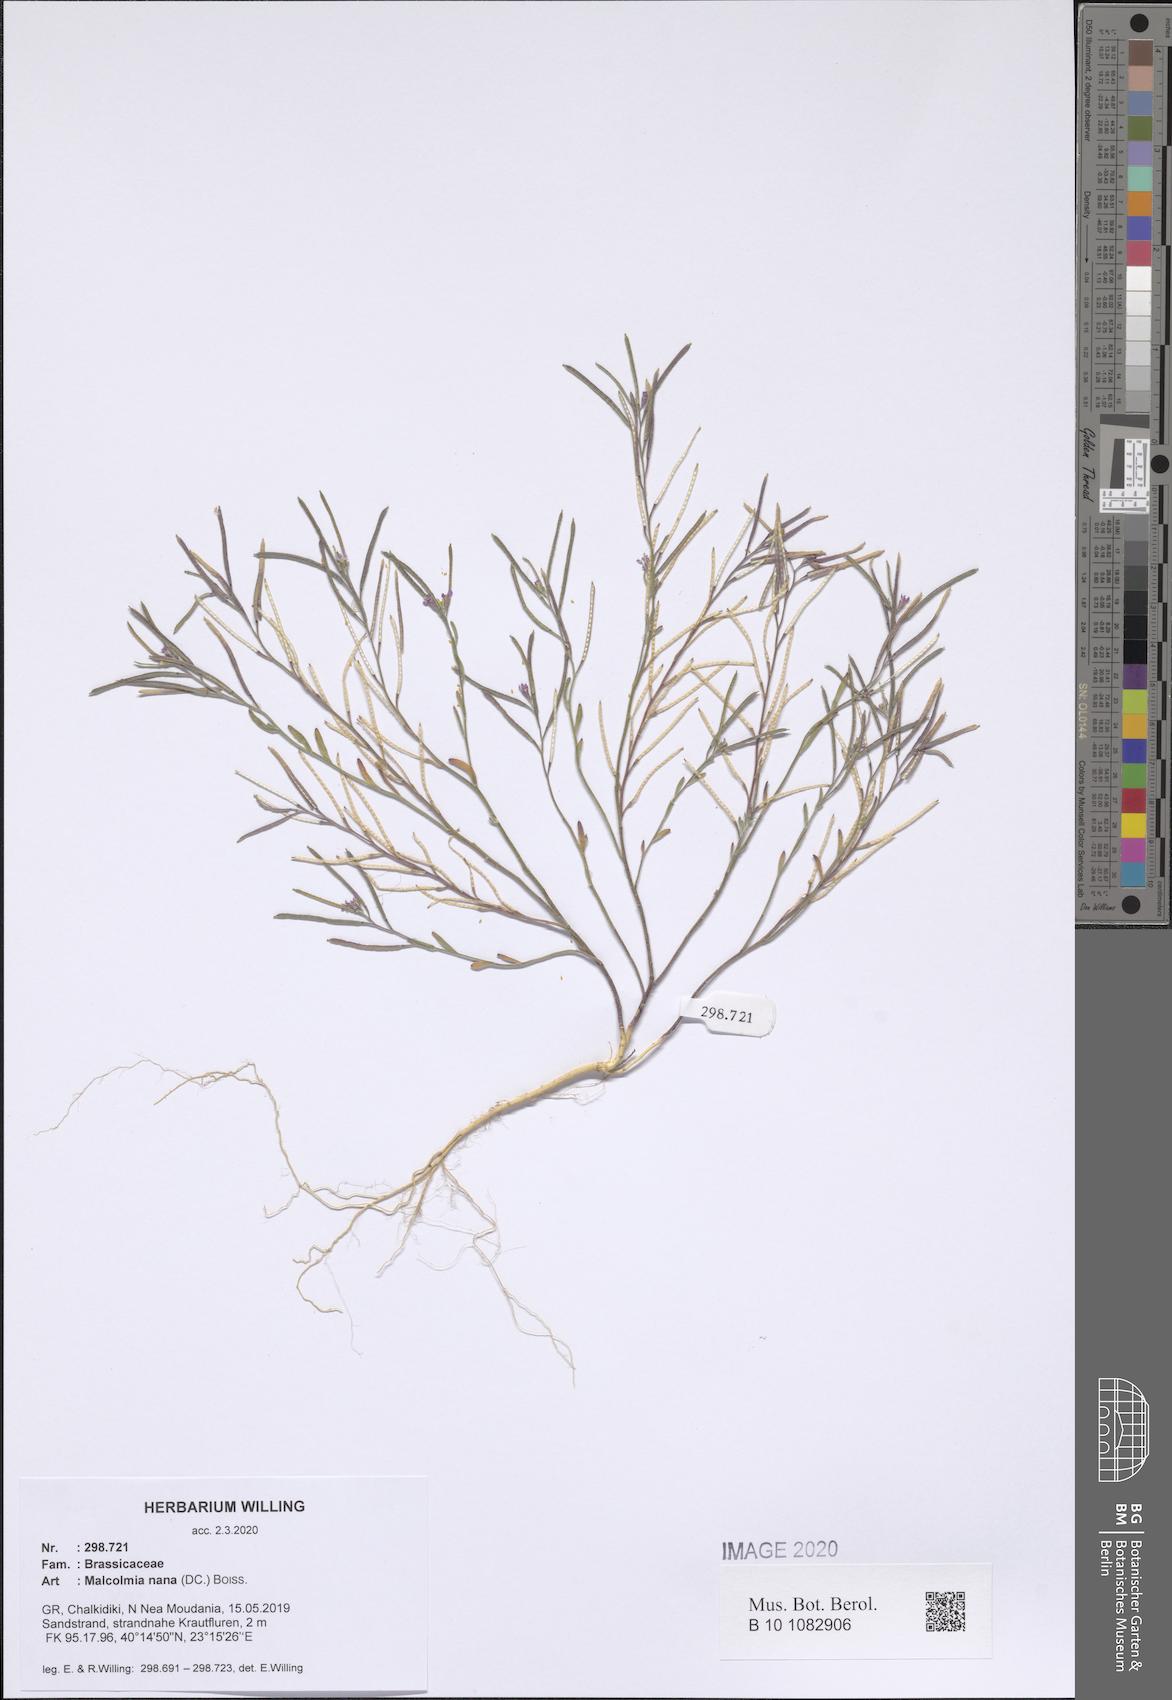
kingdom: Plantae
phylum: Tracheophyta
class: Magnoliopsida
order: Brassicales
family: Brassicaceae
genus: Maresia
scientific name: Maresia nana
